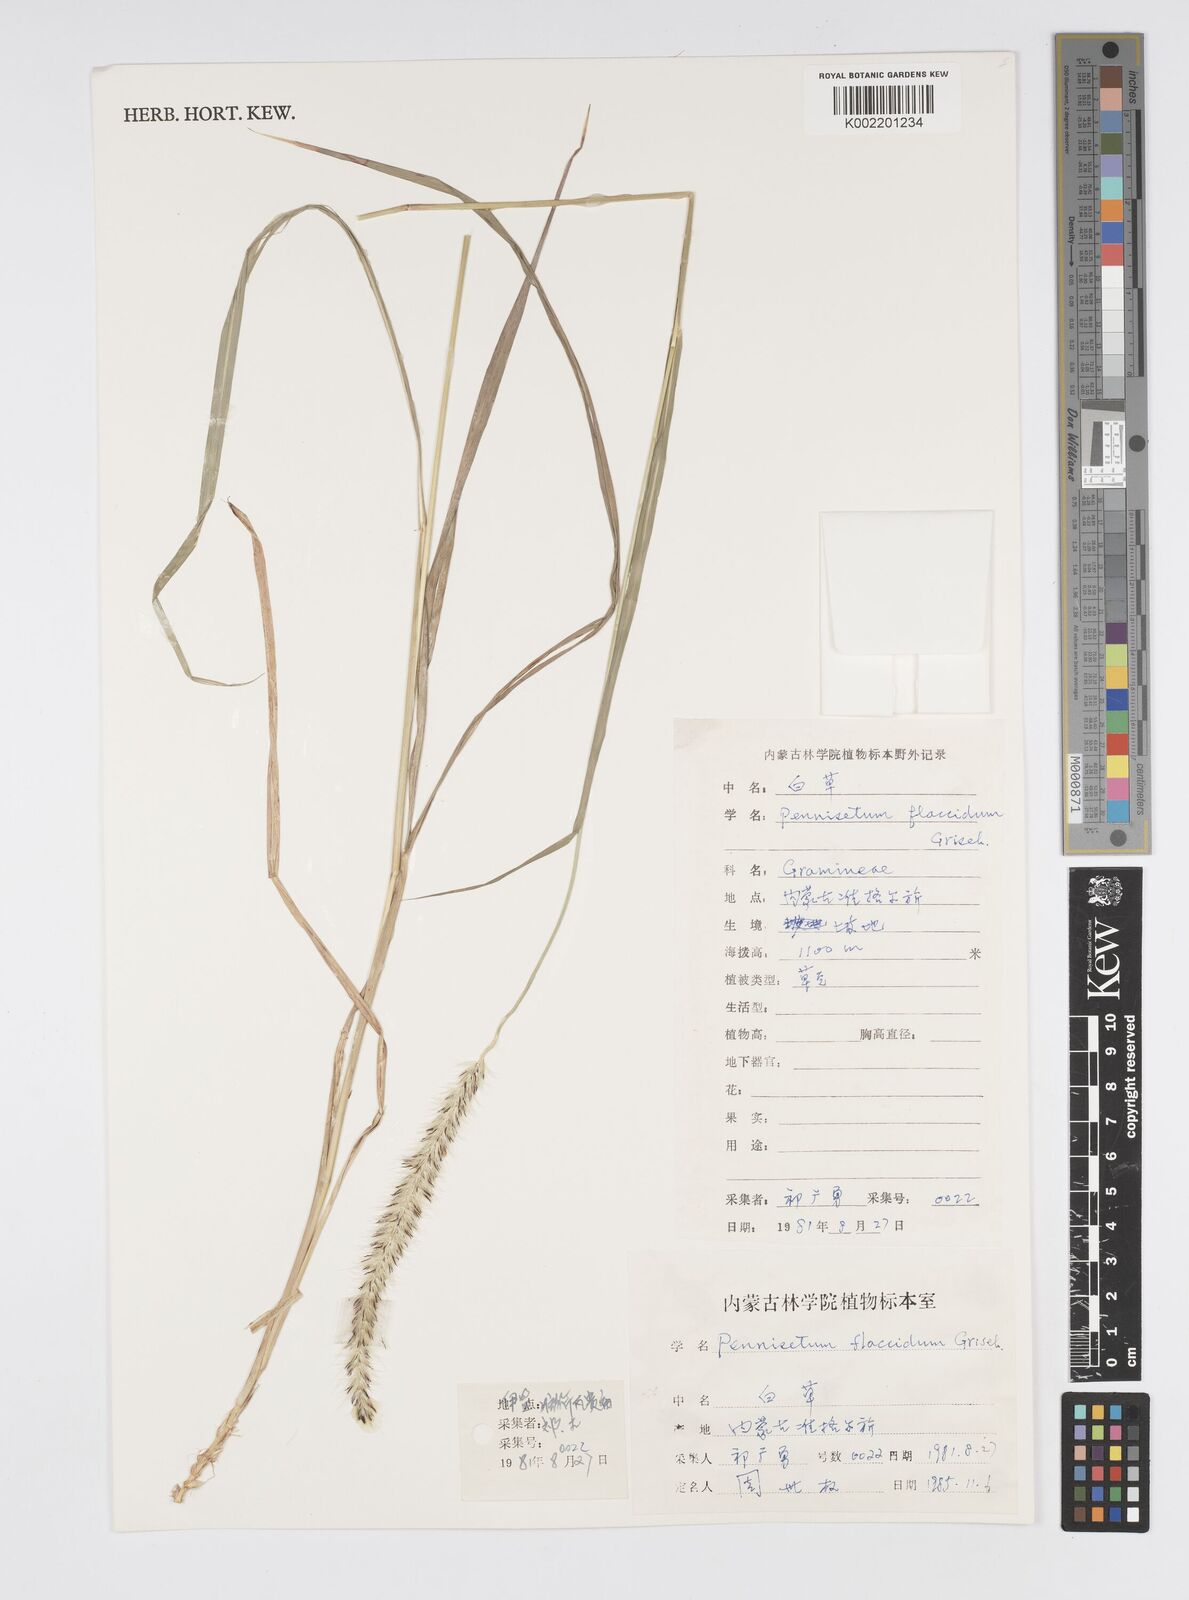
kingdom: Plantae
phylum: Tracheophyta
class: Liliopsida
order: Poales
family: Poaceae
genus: Cenchrus
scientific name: Cenchrus flaccidus
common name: Flaccid grass
